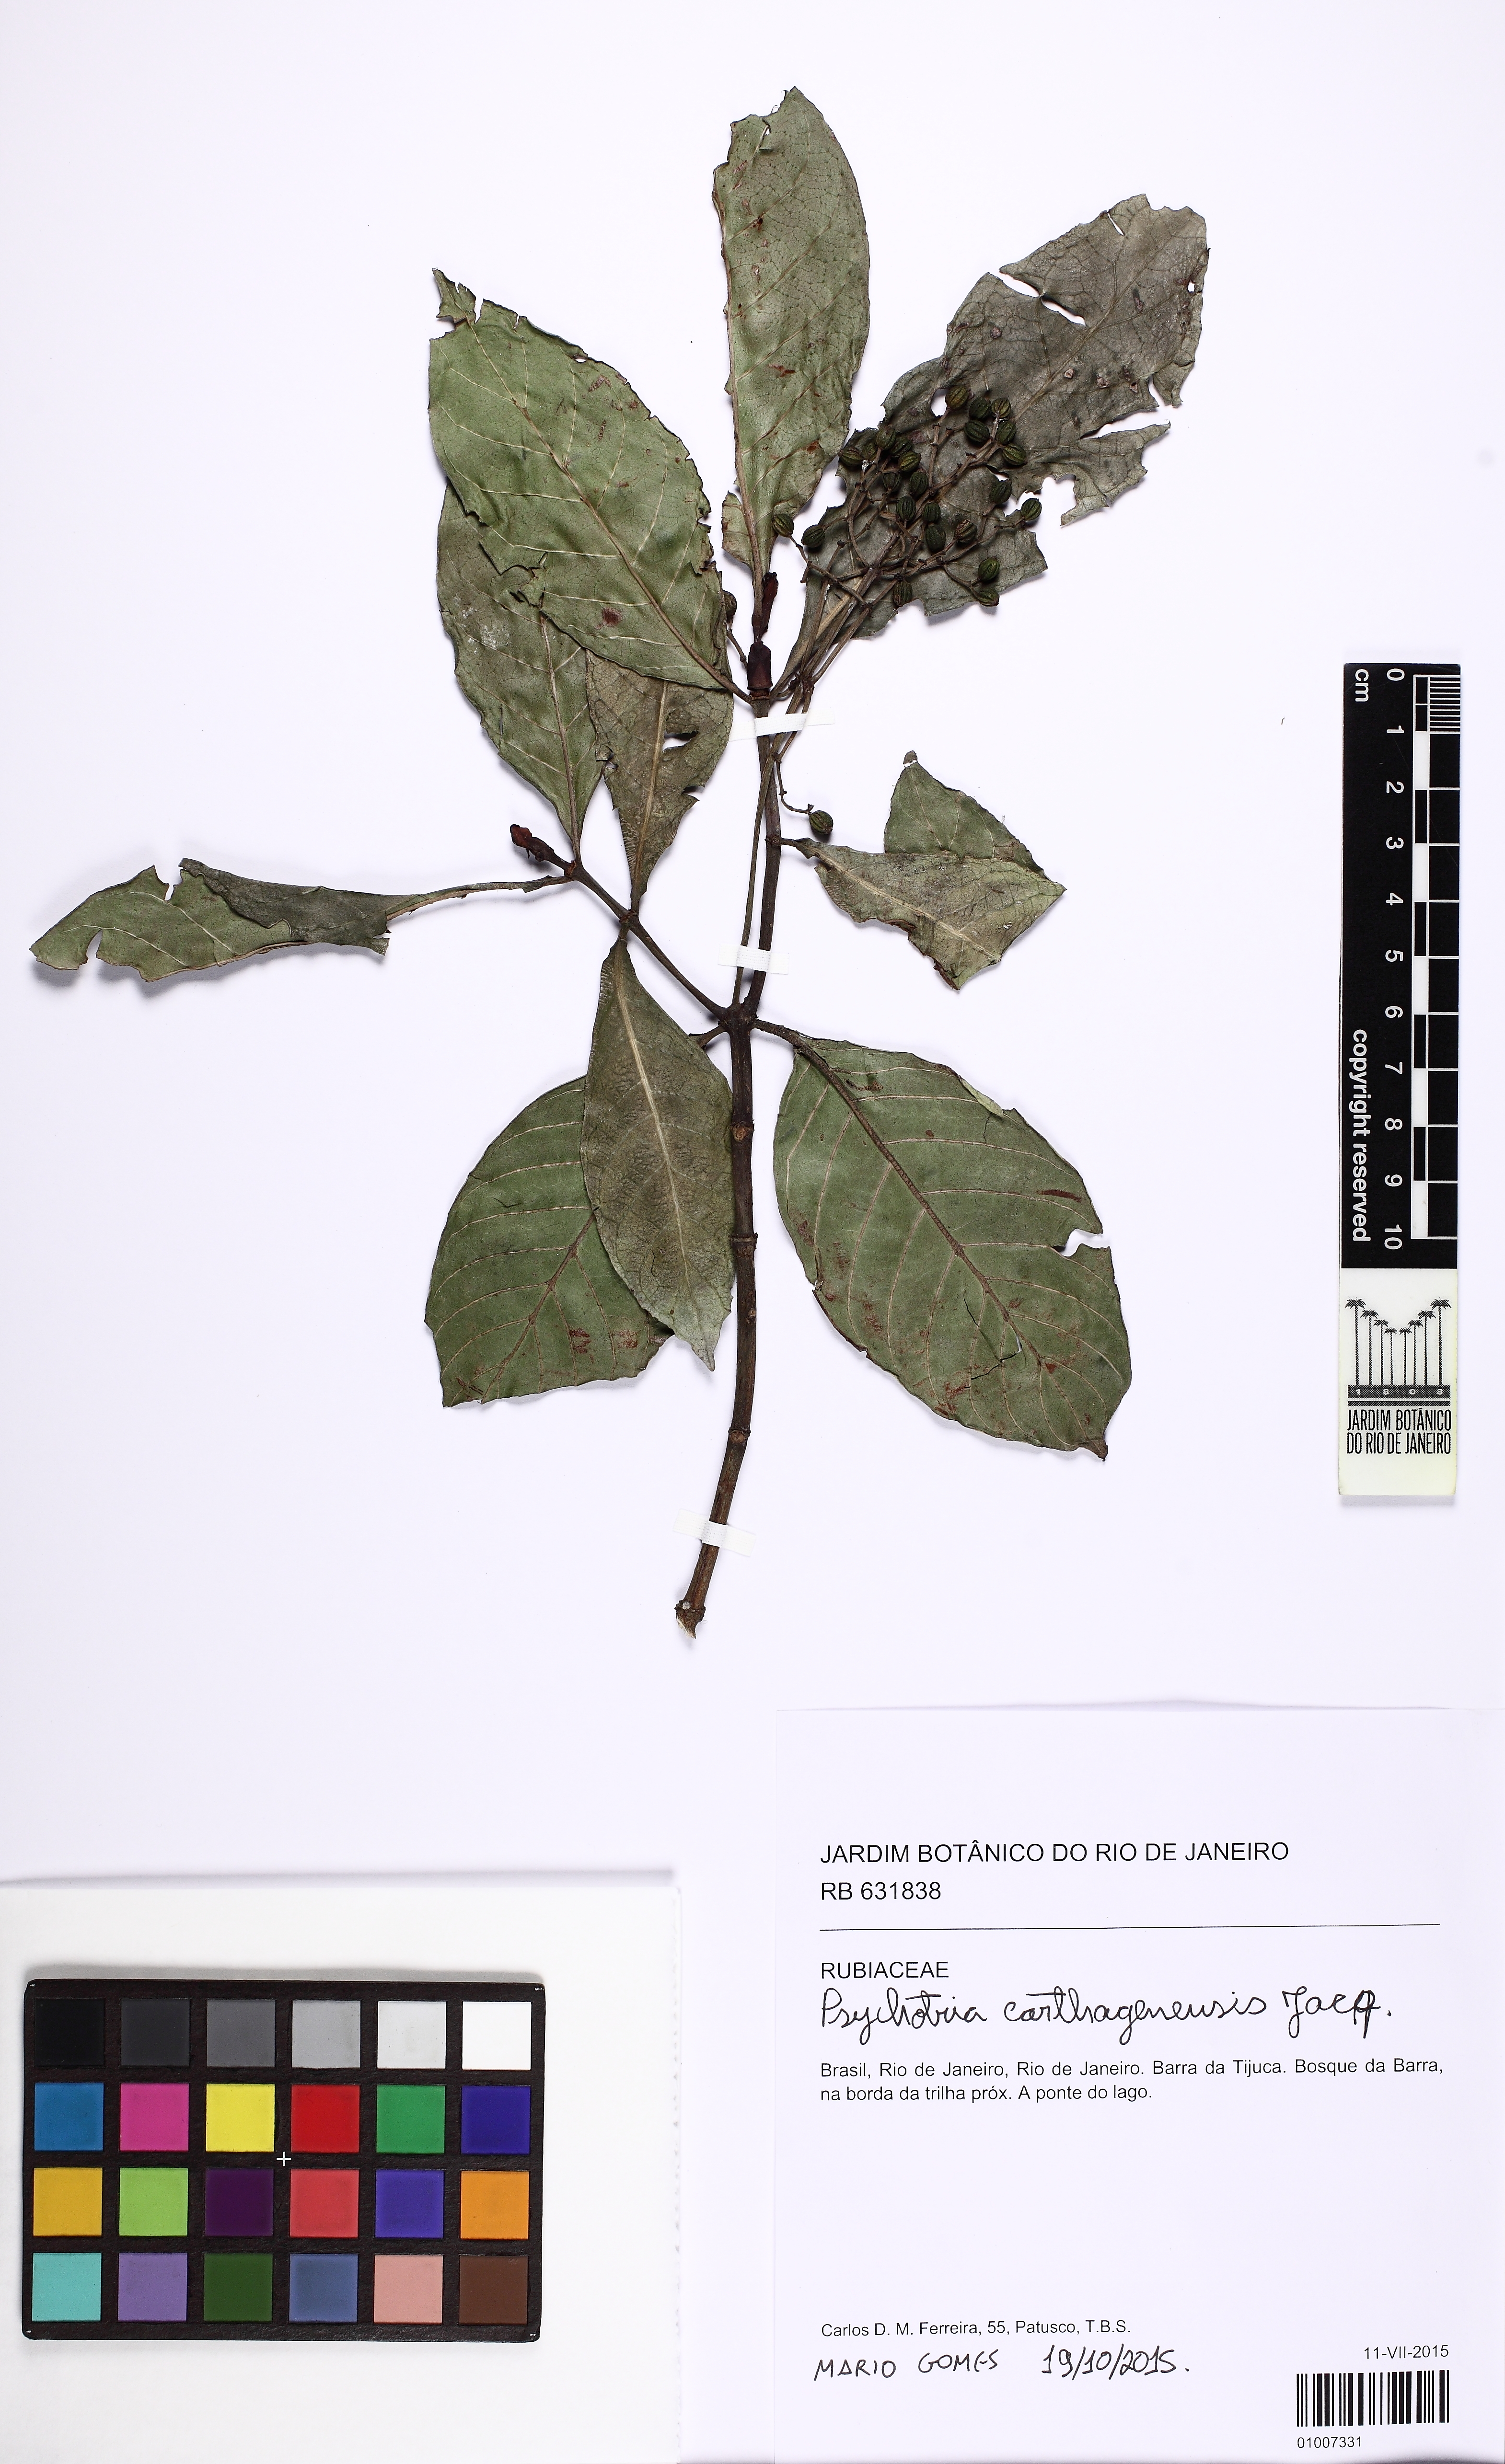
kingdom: Plantae
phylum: Tracheophyta
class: Magnoliopsida
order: Gentianales
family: Rubiaceae
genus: Psychotria
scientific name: Psychotria carthagenensis
